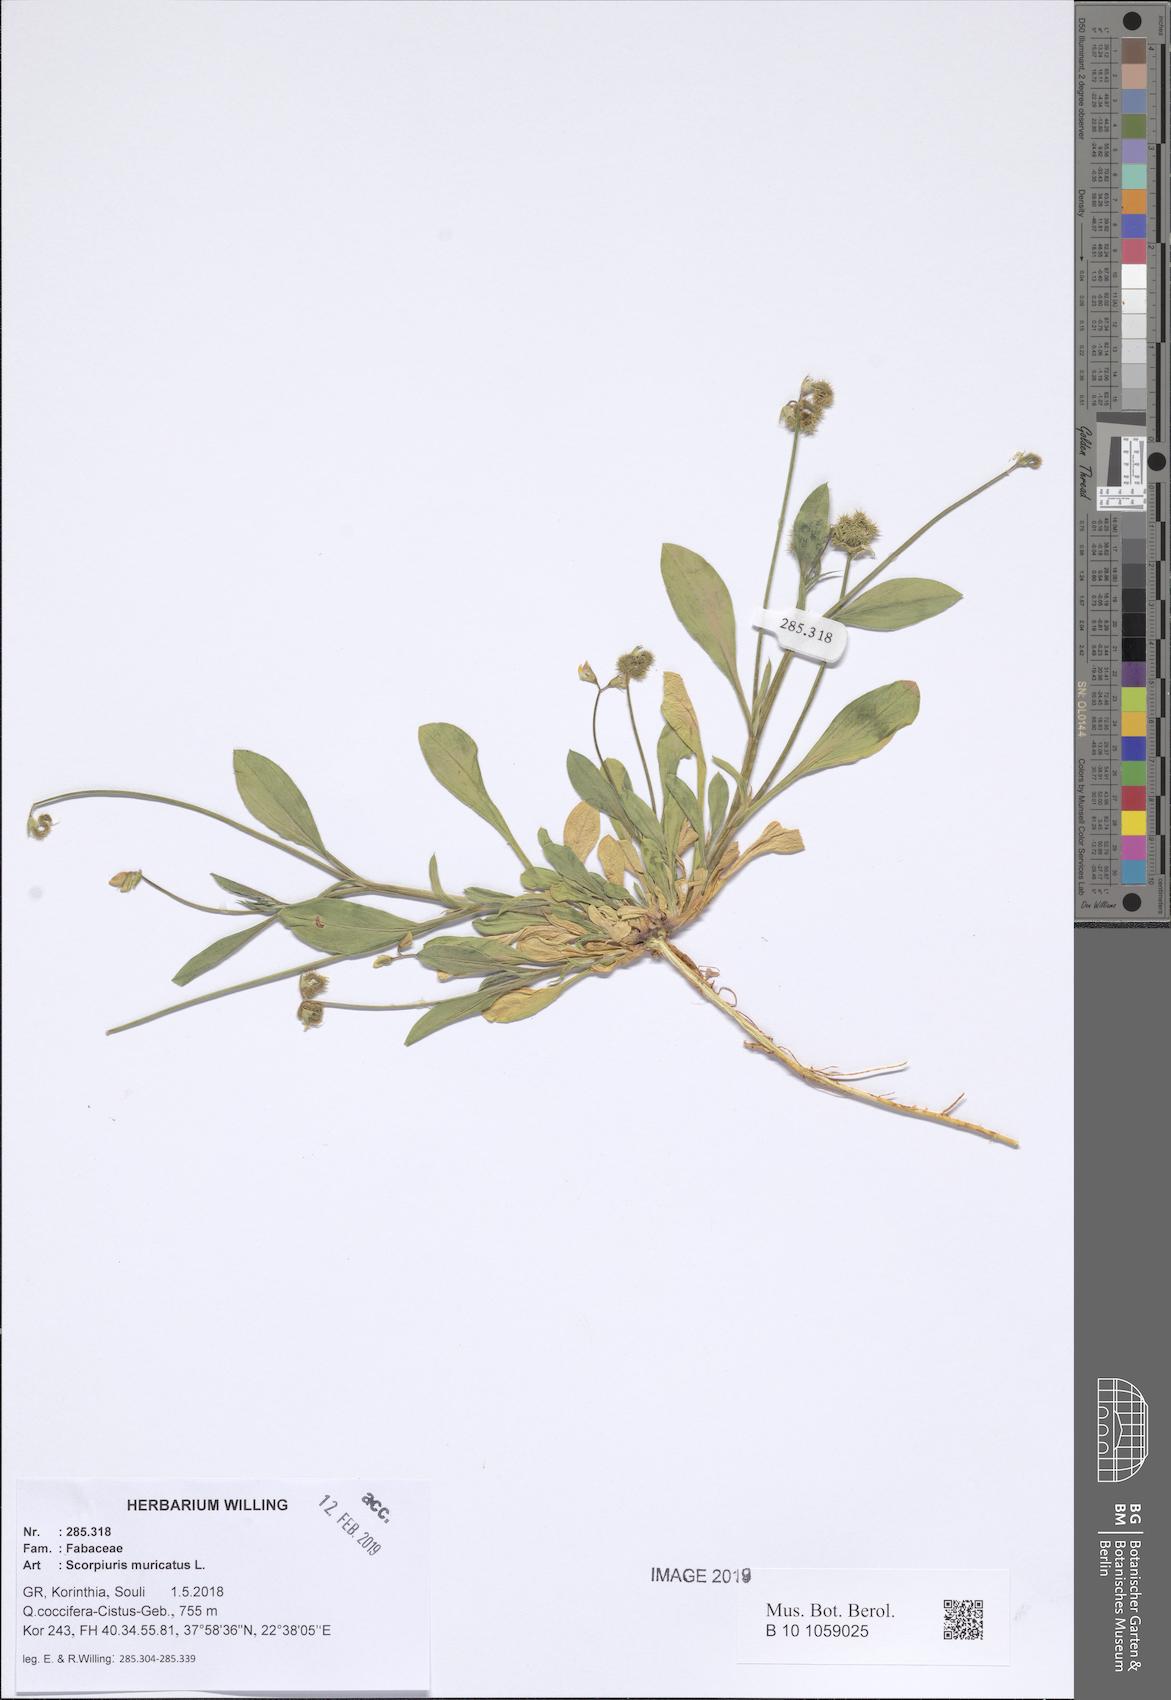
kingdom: Plantae
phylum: Tracheophyta
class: Magnoliopsida
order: Fabales
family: Fabaceae
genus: Scorpiurus
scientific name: Scorpiurus muricatus
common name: Caterpillar-plant
